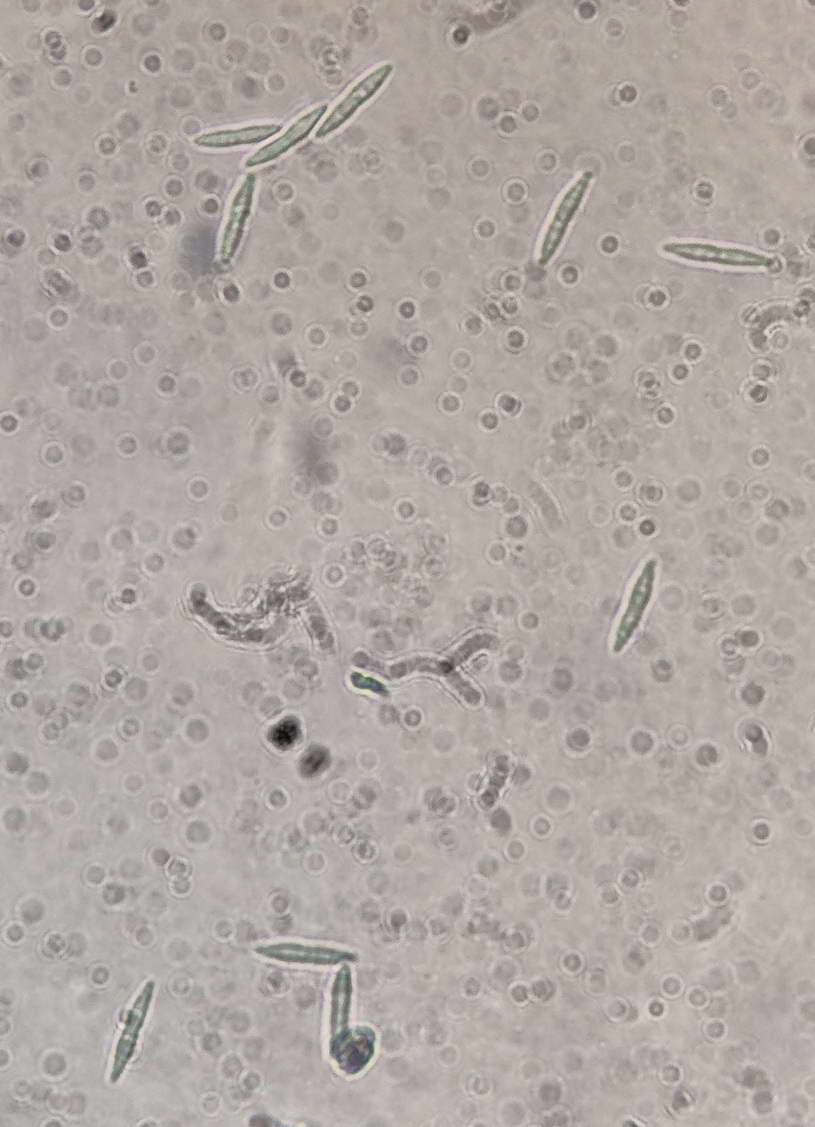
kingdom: Fungi
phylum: Ascomycota
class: Sordariomycetes
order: Diaporthales
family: Gnomoniaceae
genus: Sirococcus
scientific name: Sirococcus conigenus
